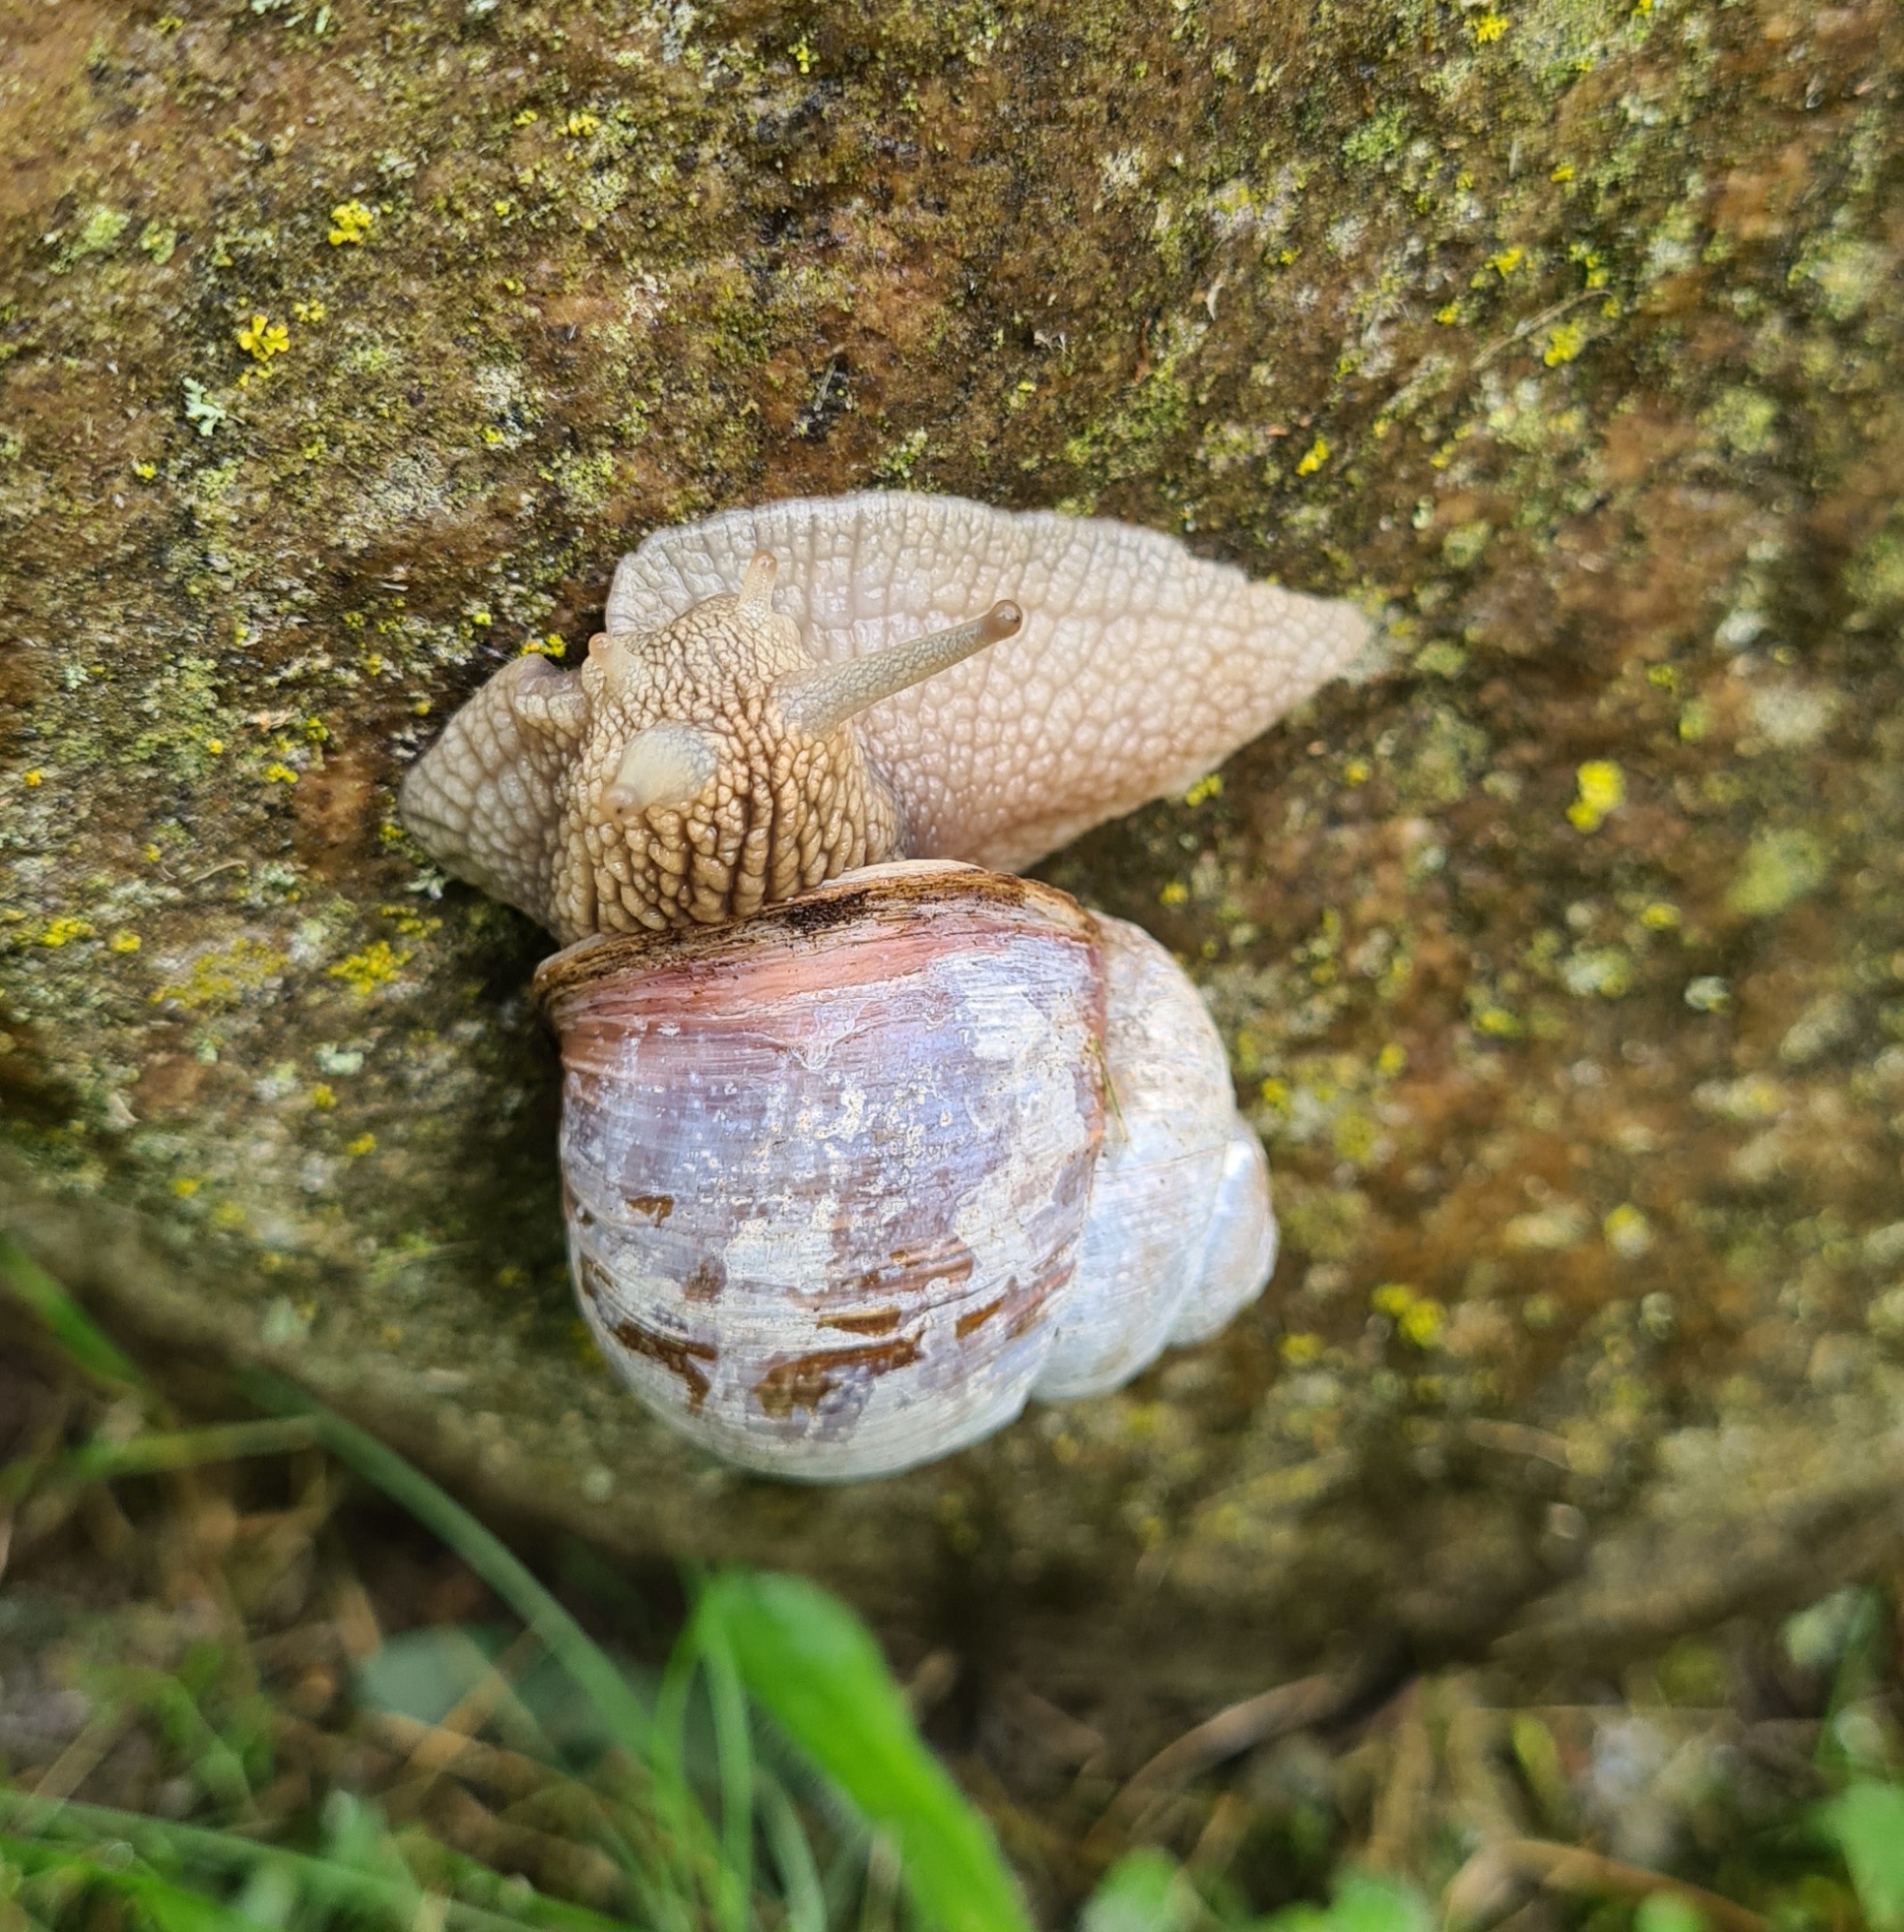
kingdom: Animalia
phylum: Mollusca
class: Gastropoda
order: Stylommatophora
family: Helicidae
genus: Helix
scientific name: Helix pomatia
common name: Vinbjergsnegl
